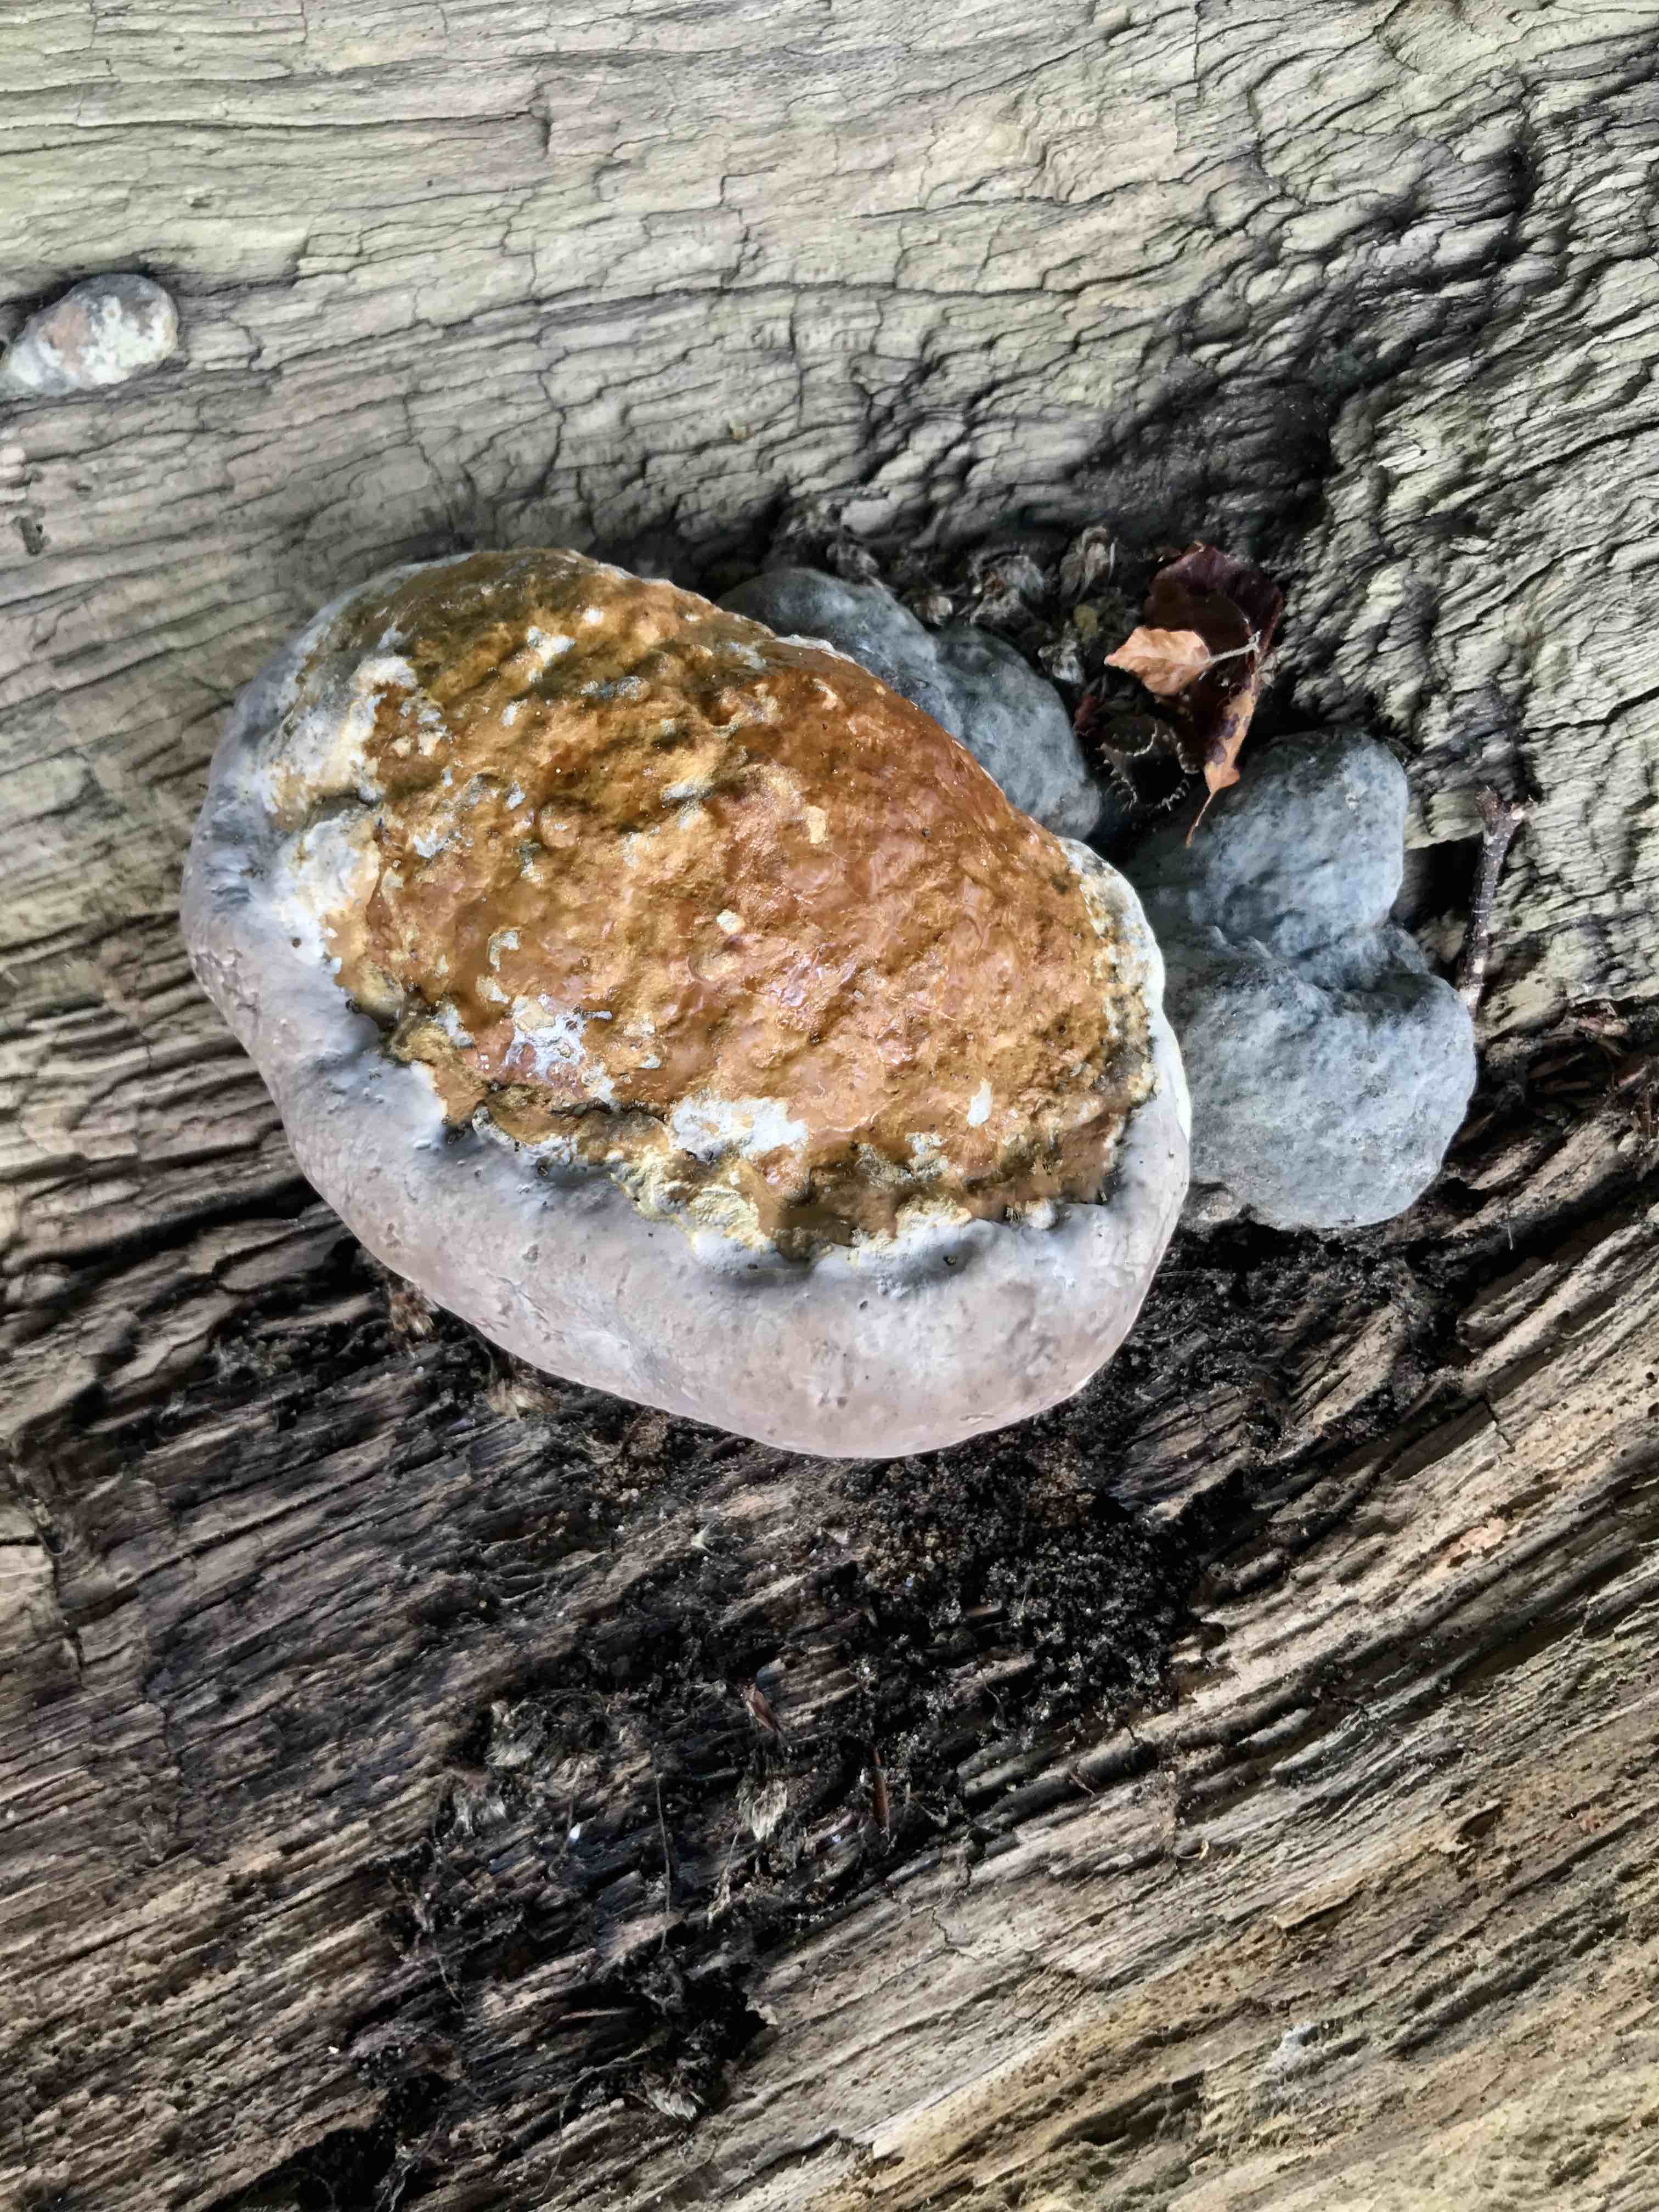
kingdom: Fungi
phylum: Basidiomycota
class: Agaricomycetes
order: Polyporales
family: Fomitopsidaceae
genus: Fomitopsis
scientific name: Fomitopsis pinicola
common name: randbæltet hovporesvamp
